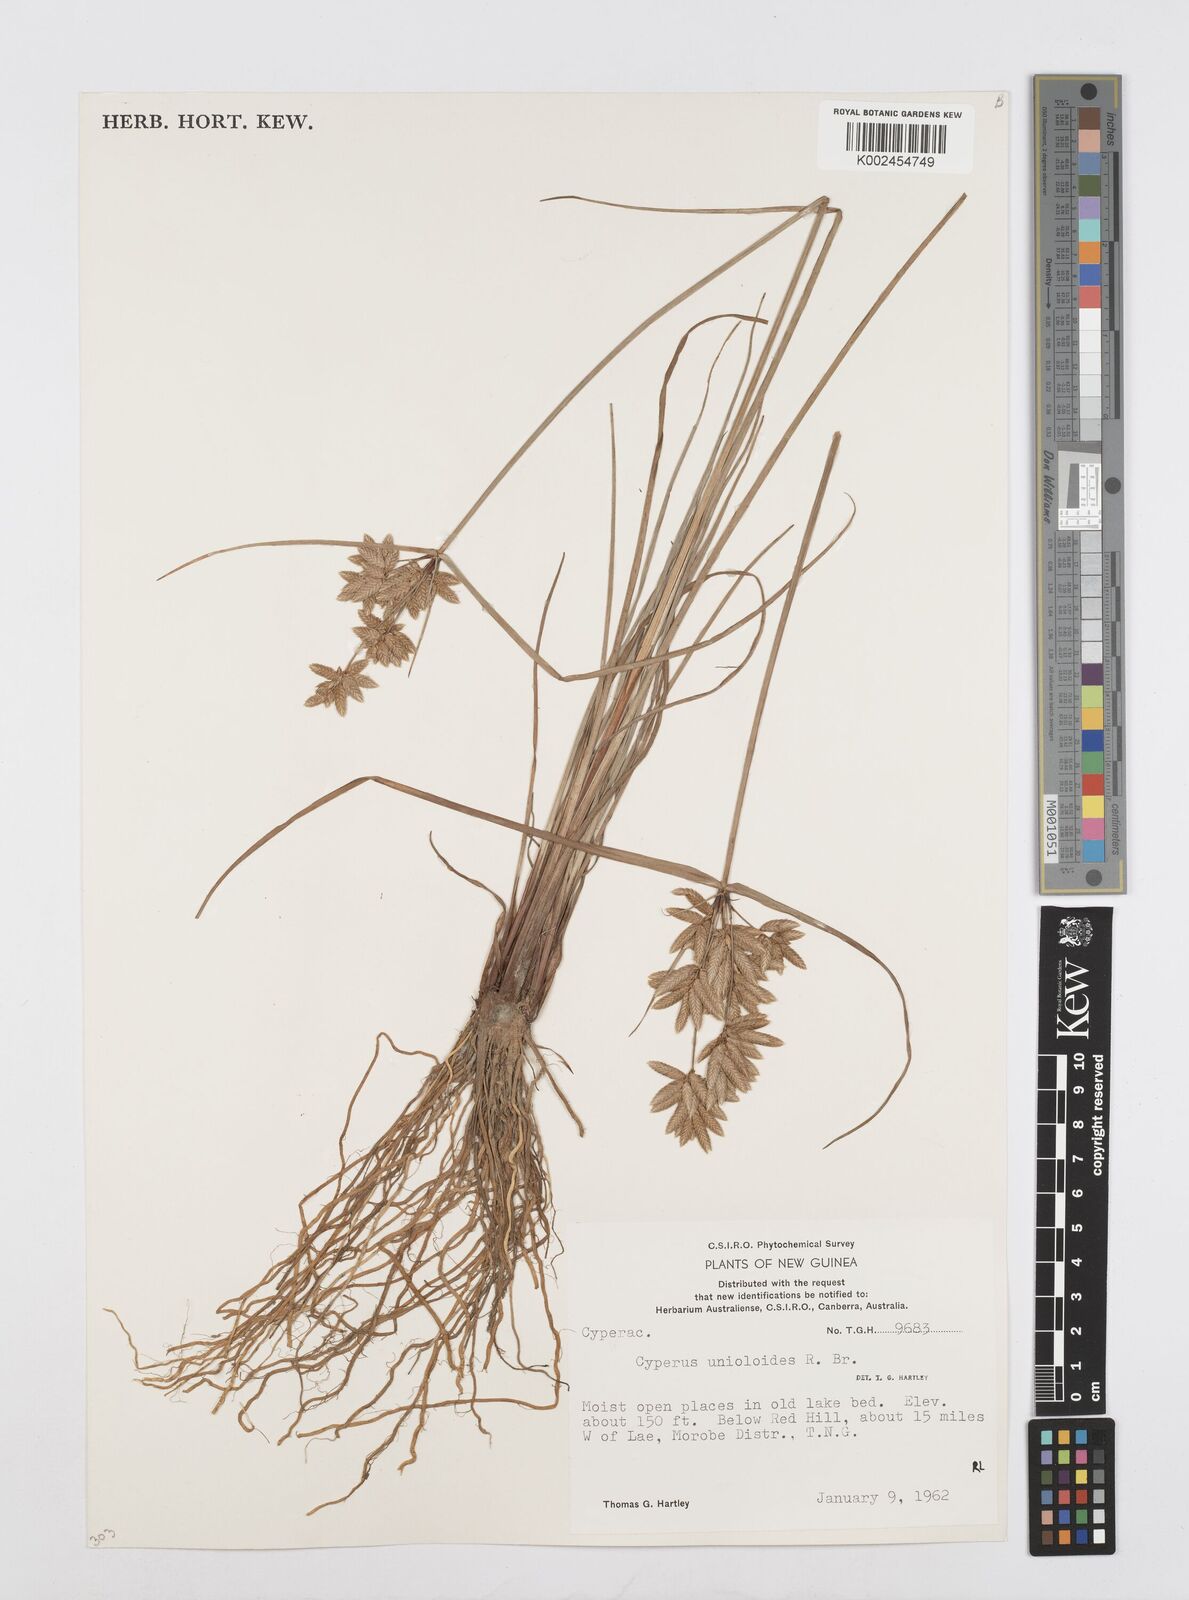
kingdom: Plantae
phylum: Tracheophyta
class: Liliopsida
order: Poales
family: Cyperaceae
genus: Cyperus
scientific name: Cyperus unioloides
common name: Uniola flatsedge
